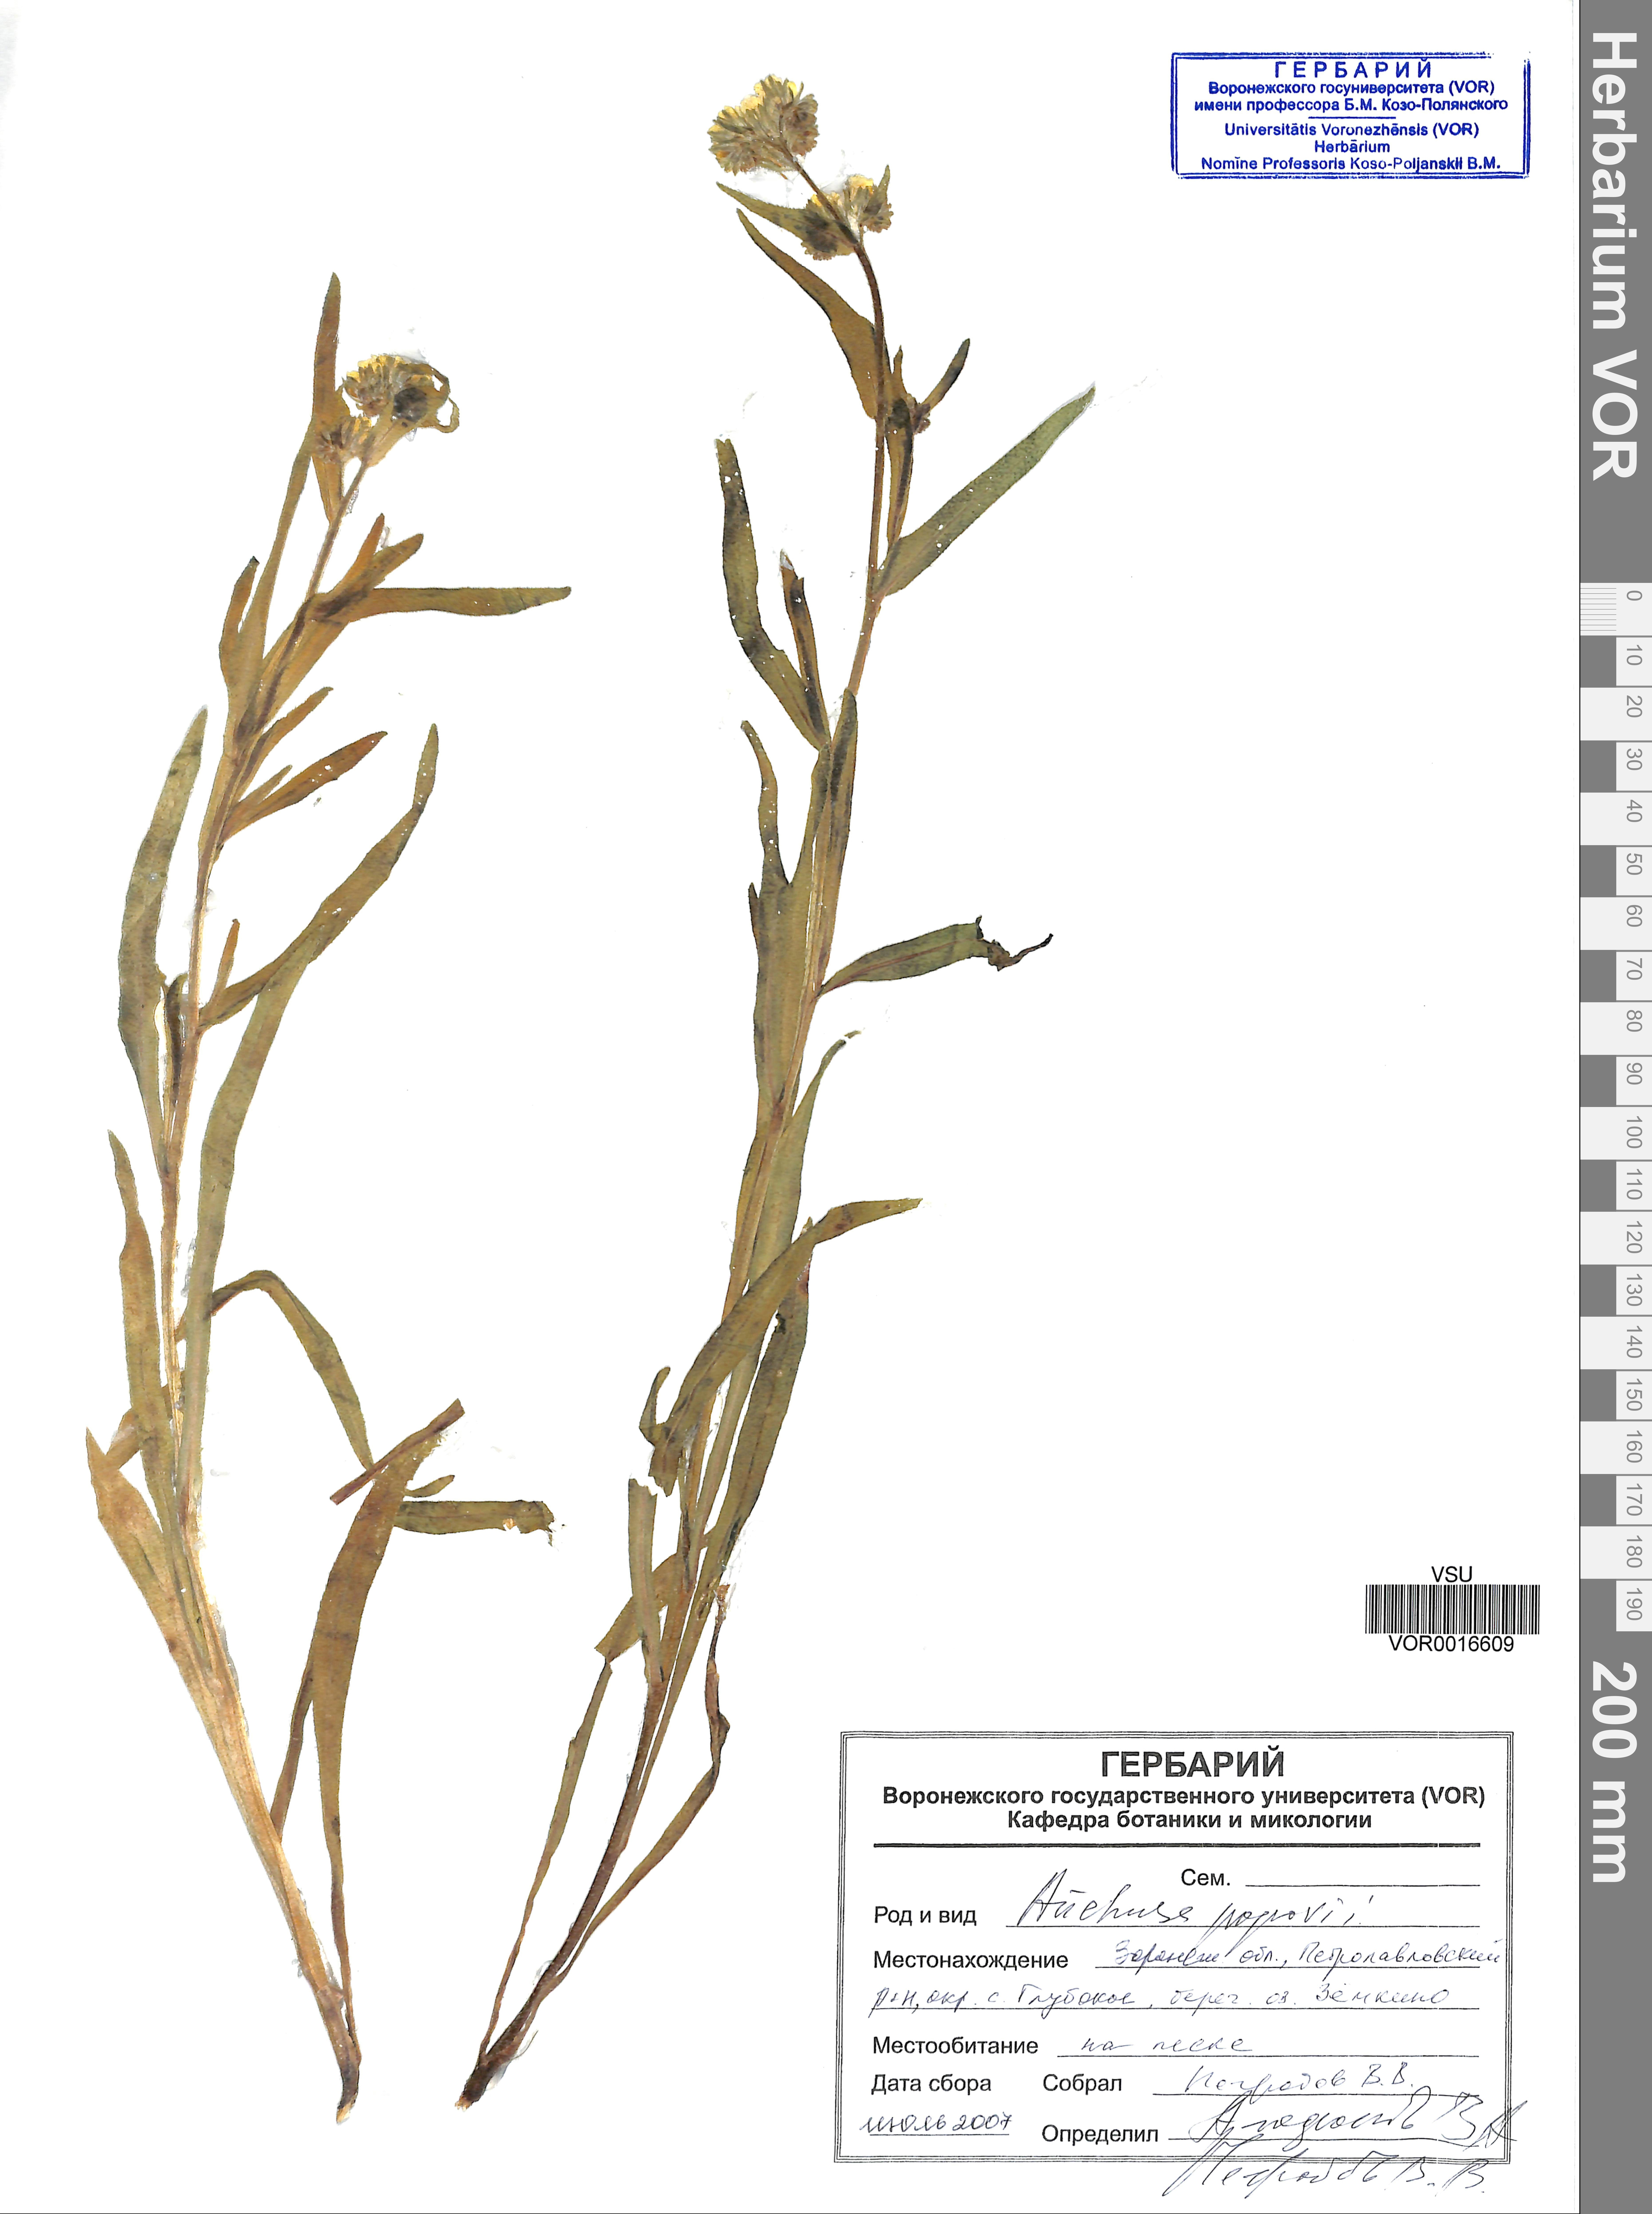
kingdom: Plantae
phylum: Tracheophyta
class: Magnoliopsida
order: Boraginales
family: Boraginaceae
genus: Anchusa
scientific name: Anchusa ochroleuca
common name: Yellow alkanet
